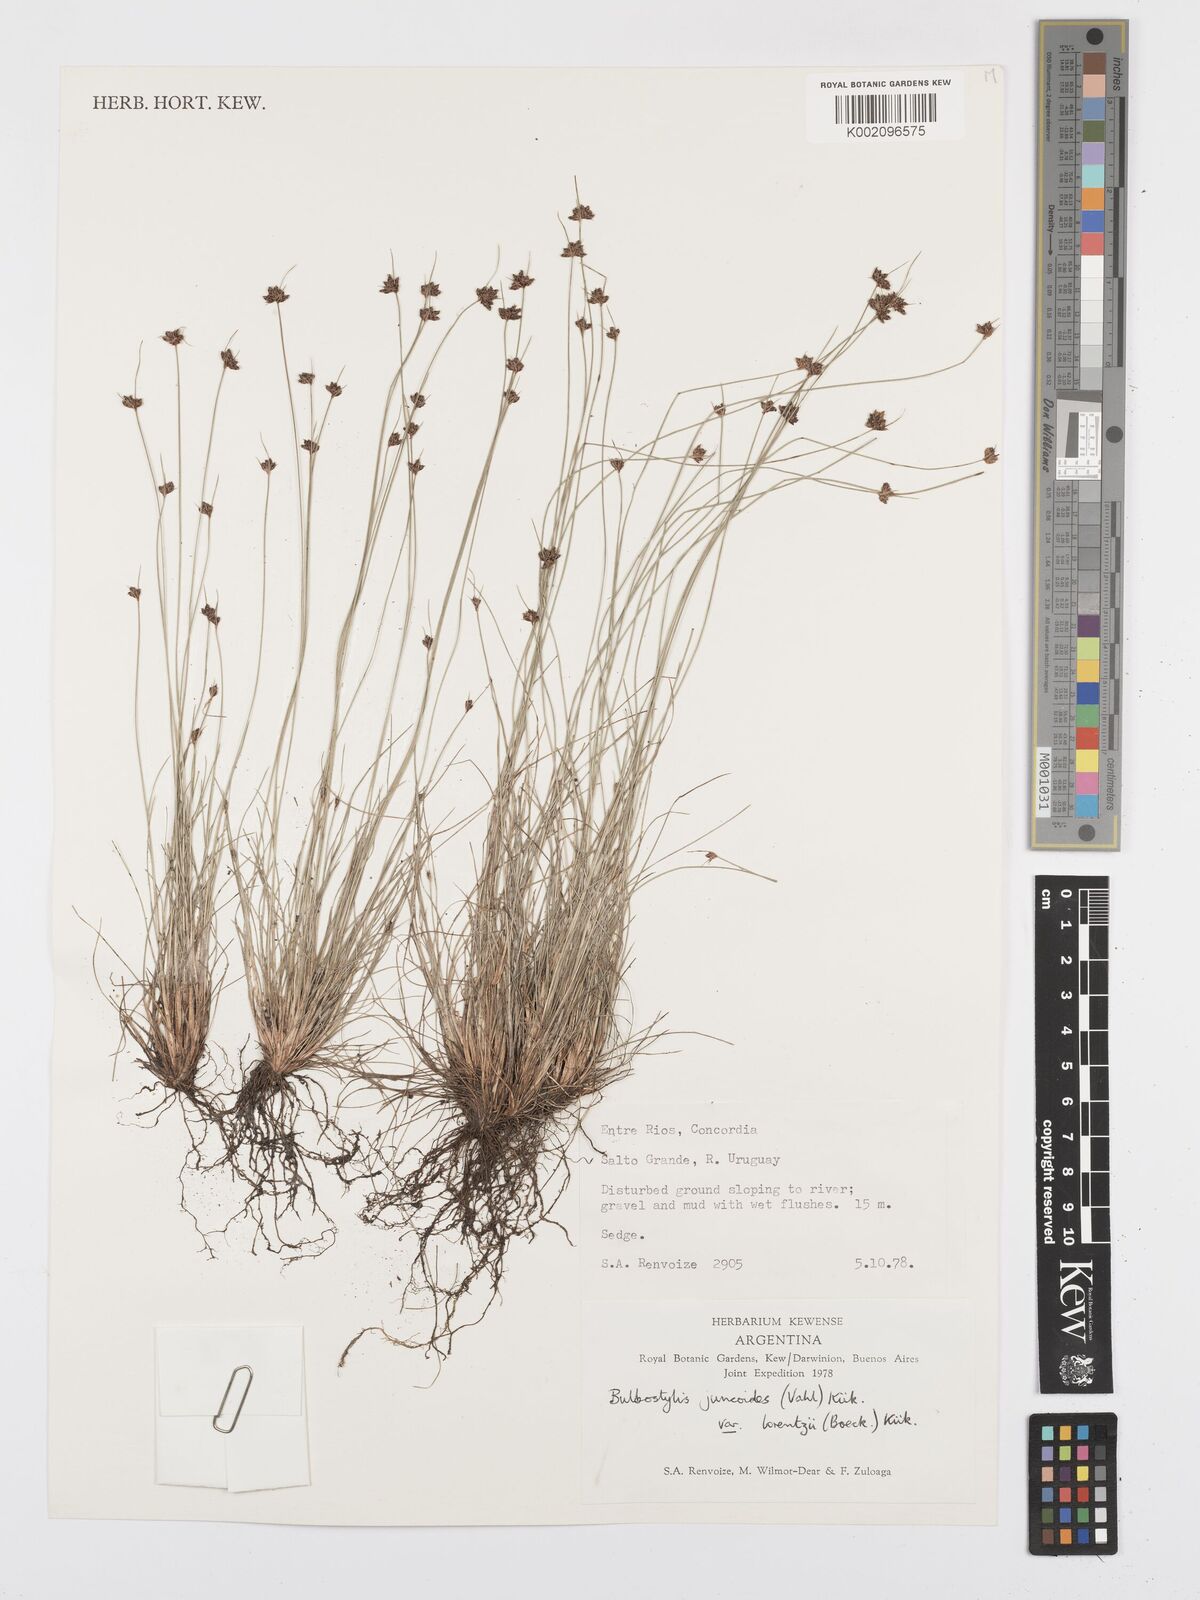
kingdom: Plantae
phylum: Tracheophyta
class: Liliopsida
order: Poales
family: Cyperaceae
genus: Bulbostylis
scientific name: Bulbostylis
